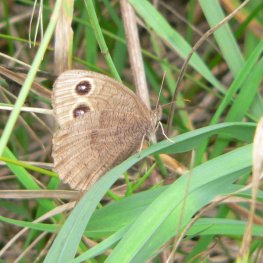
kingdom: Animalia
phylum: Arthropoda
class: Insecta
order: Lepidoptera
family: Nymphalidae
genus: Cercyonis
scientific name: Cercyonis pegala
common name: Common Wood-Nymph
